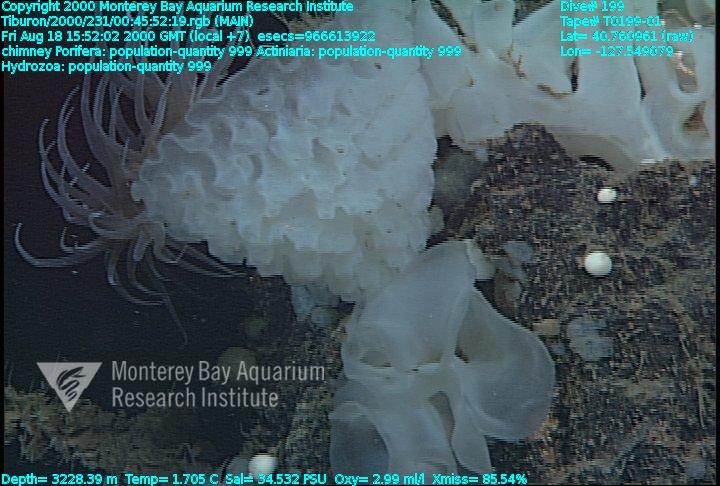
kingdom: Animalia
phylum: Porifera
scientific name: Porifera
